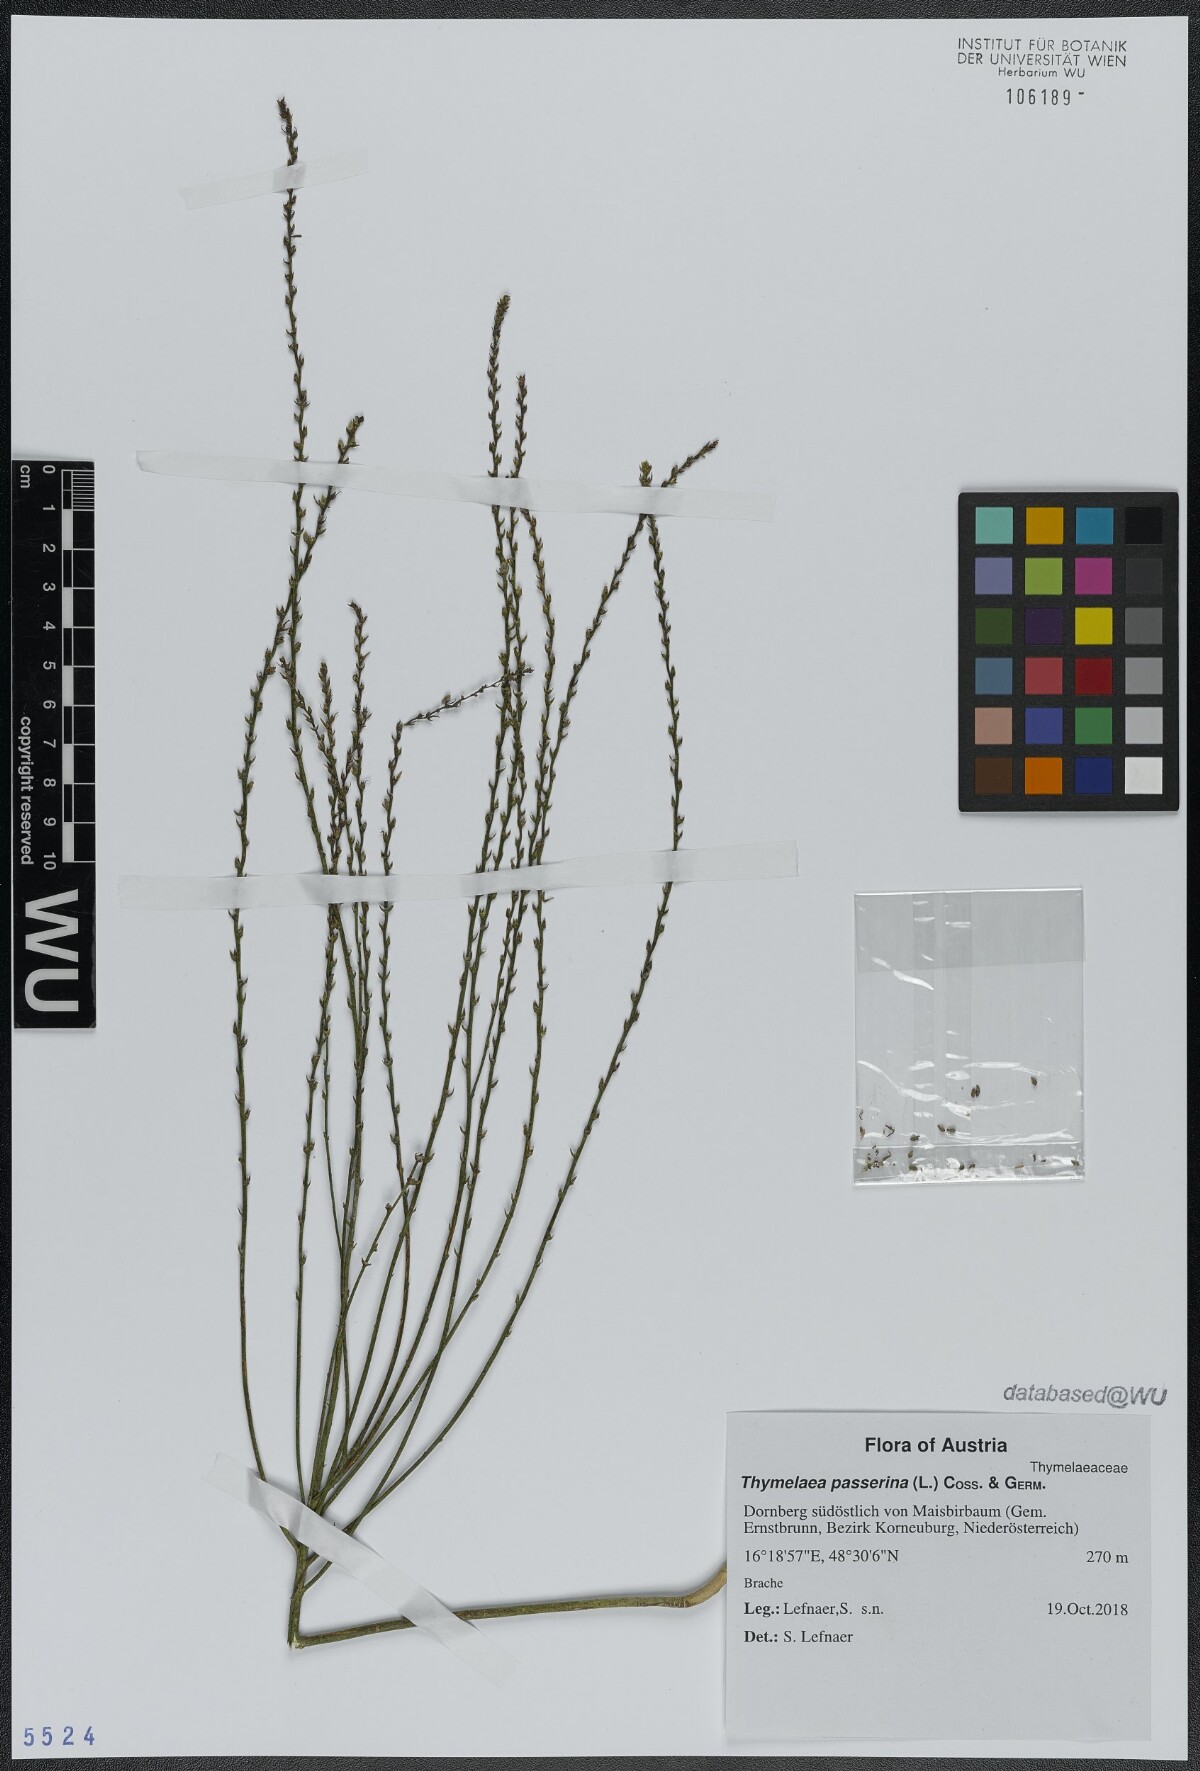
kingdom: Plantae
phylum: Tracheophyta
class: Magnoliopsida
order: Malvales
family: Thymelaeaceae
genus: Thymelaea
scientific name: Thymelaea passerina
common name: Annual thymelaea
